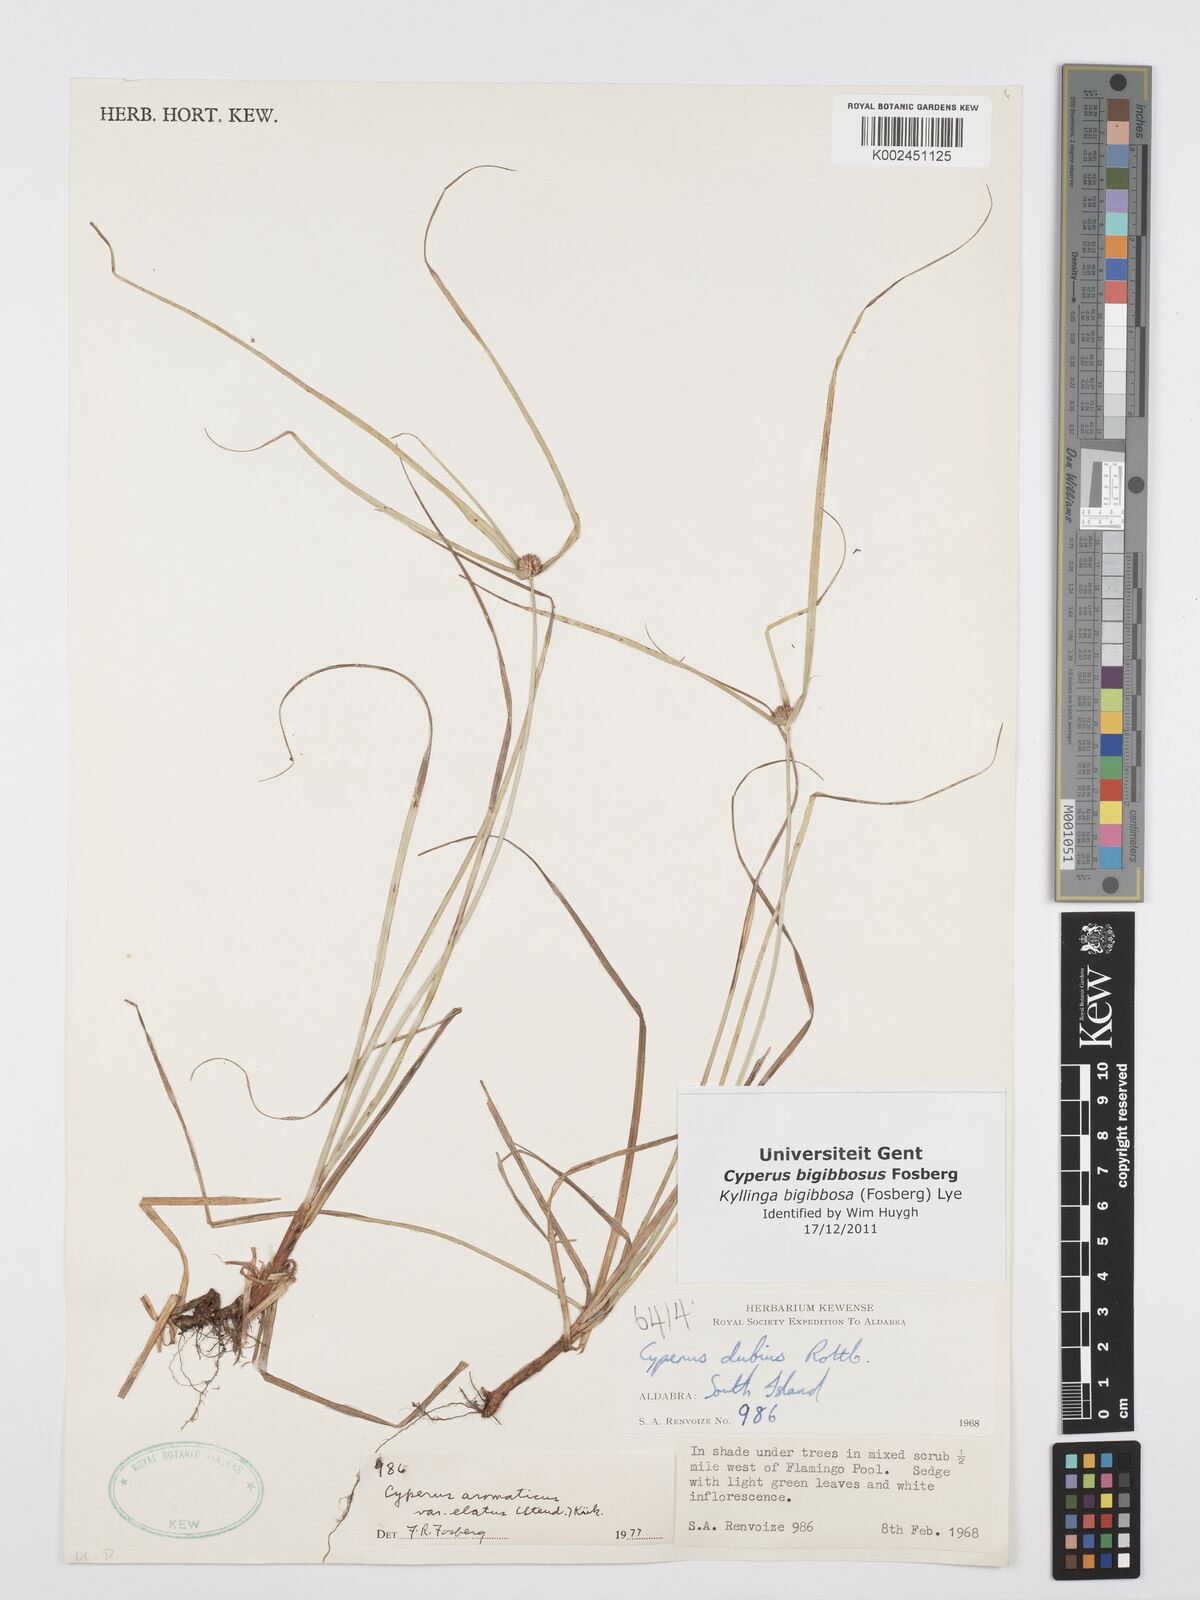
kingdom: Plantae
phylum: Tracheophyta
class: Liliopsida
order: Poales
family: Cyperaceae
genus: Cyperus
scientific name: Cyperus bigibbosa
